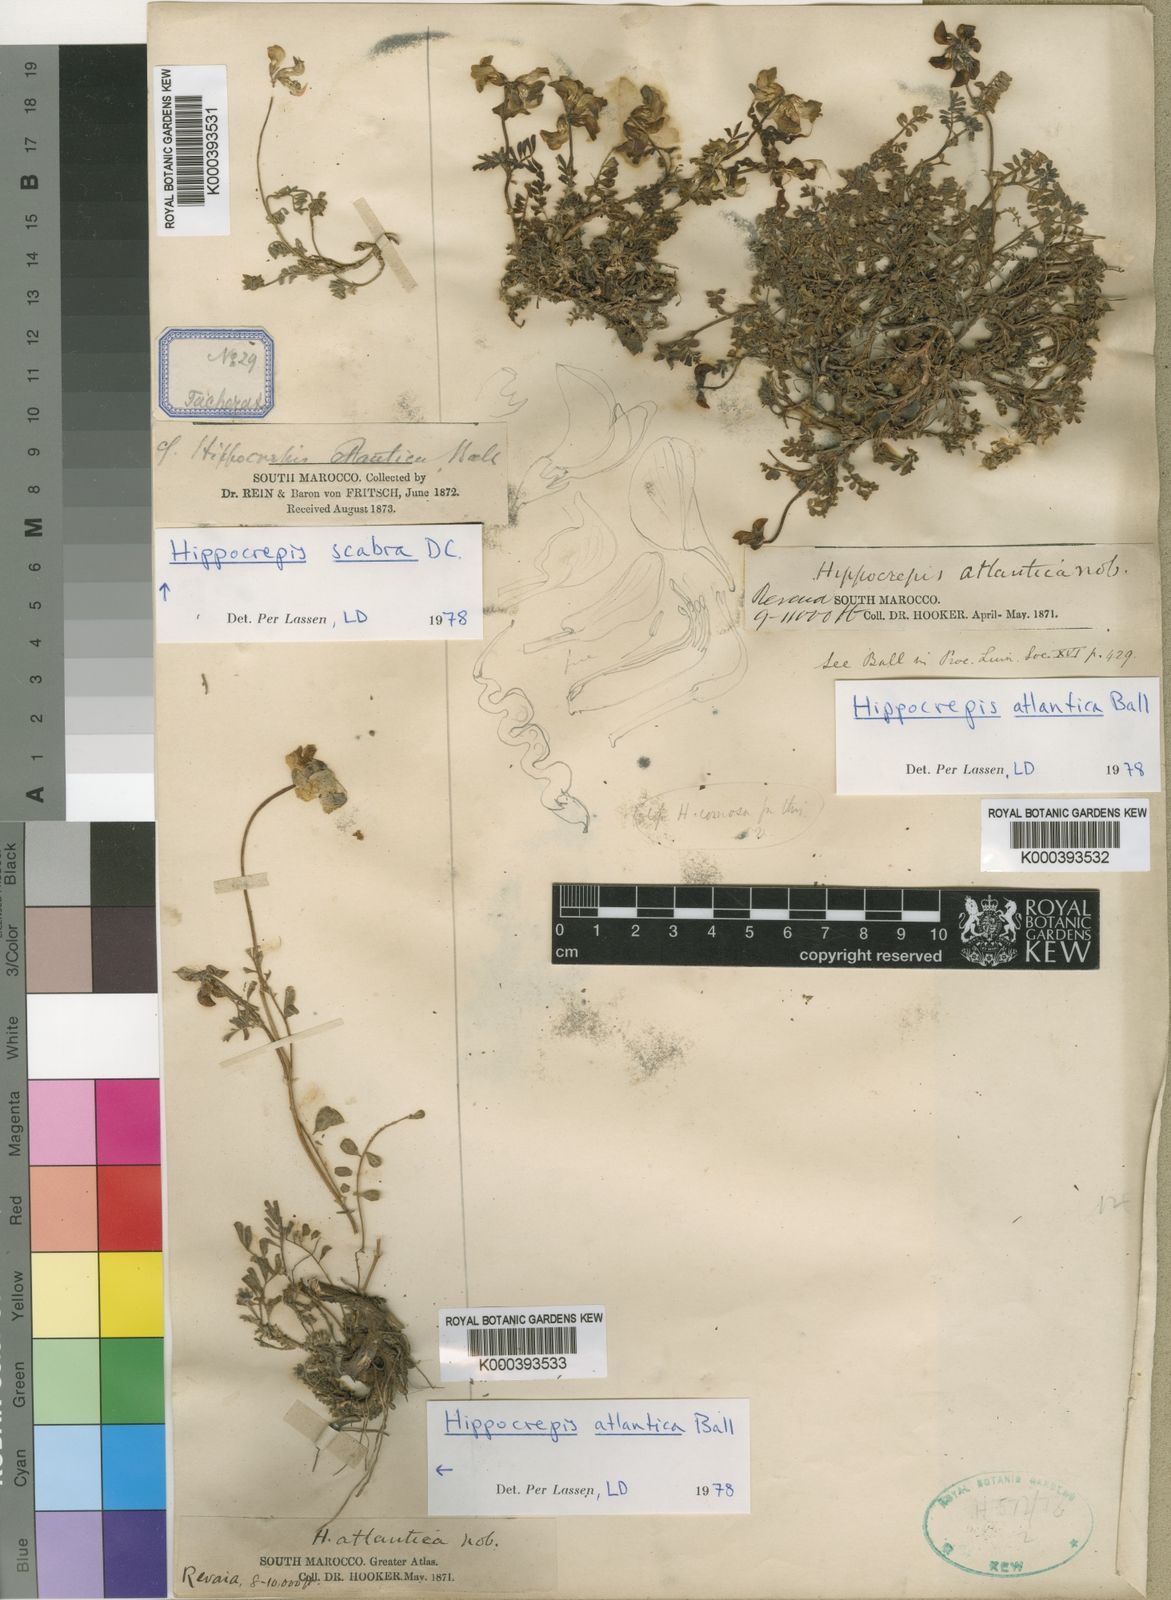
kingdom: Plantae
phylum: Tracheophyta
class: Magnoliopsida
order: Fabales
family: Fabaceae
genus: Hippocrepis
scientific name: Hippocrepis atlantica
